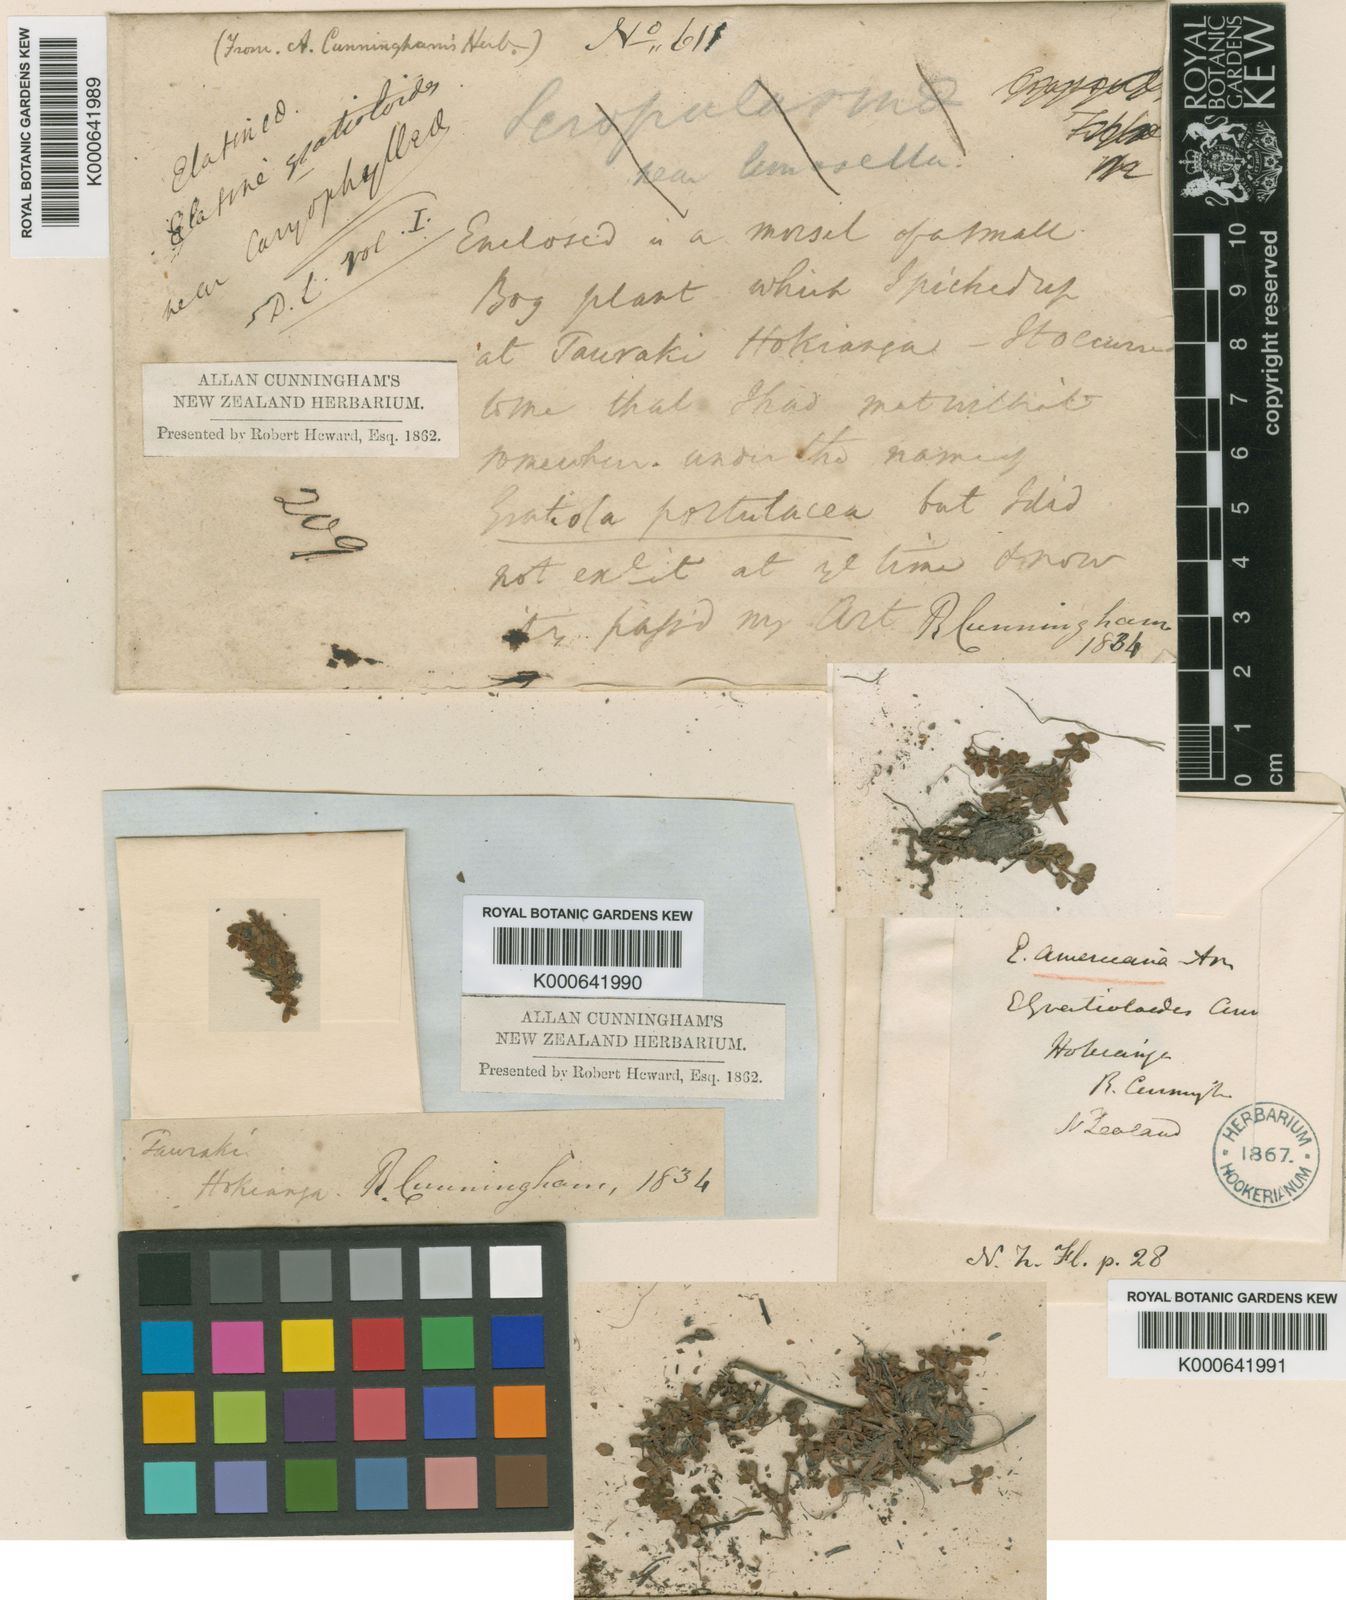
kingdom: Plantae
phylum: Tracheophyta
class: Magnoliopsida
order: Malpighiales
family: Elatinaceae
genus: Elatine
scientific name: Elatine gratioloides
